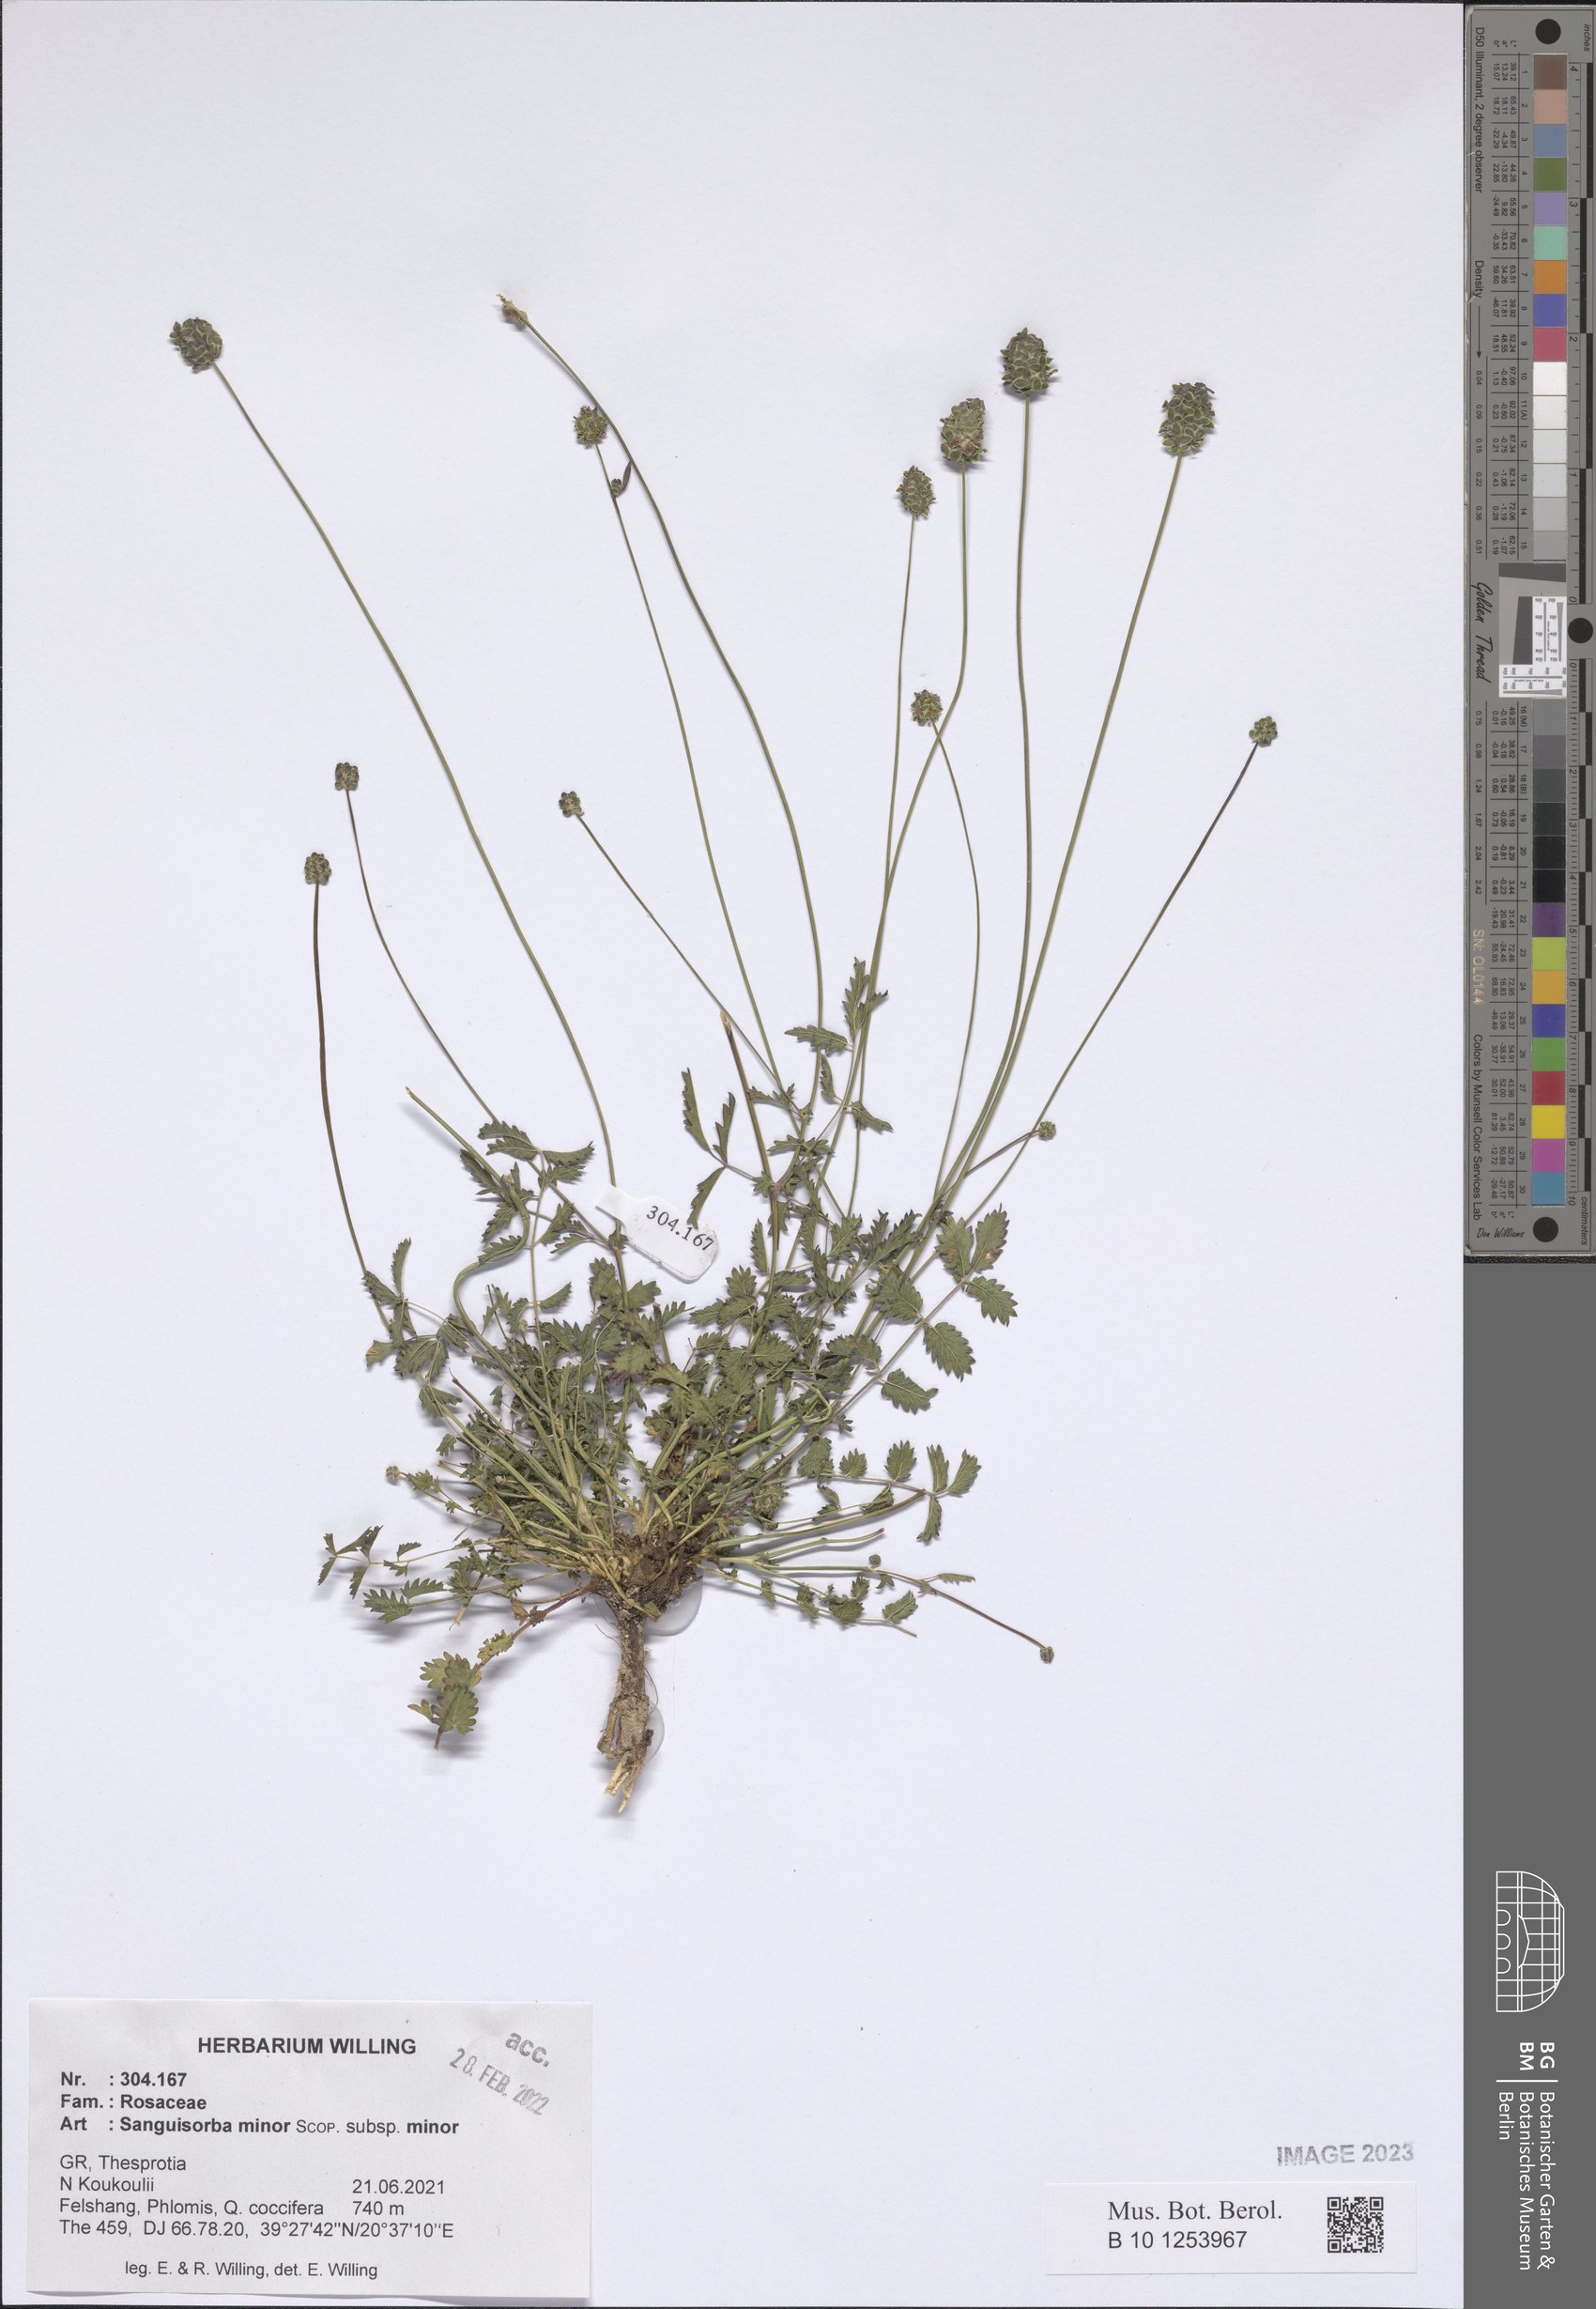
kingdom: Plantae
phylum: Tracheophyta
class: Magnoliopsida
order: Rosales
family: Rosaceae
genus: Poterium
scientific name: Poterium sanguisorba
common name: Salad burnet
